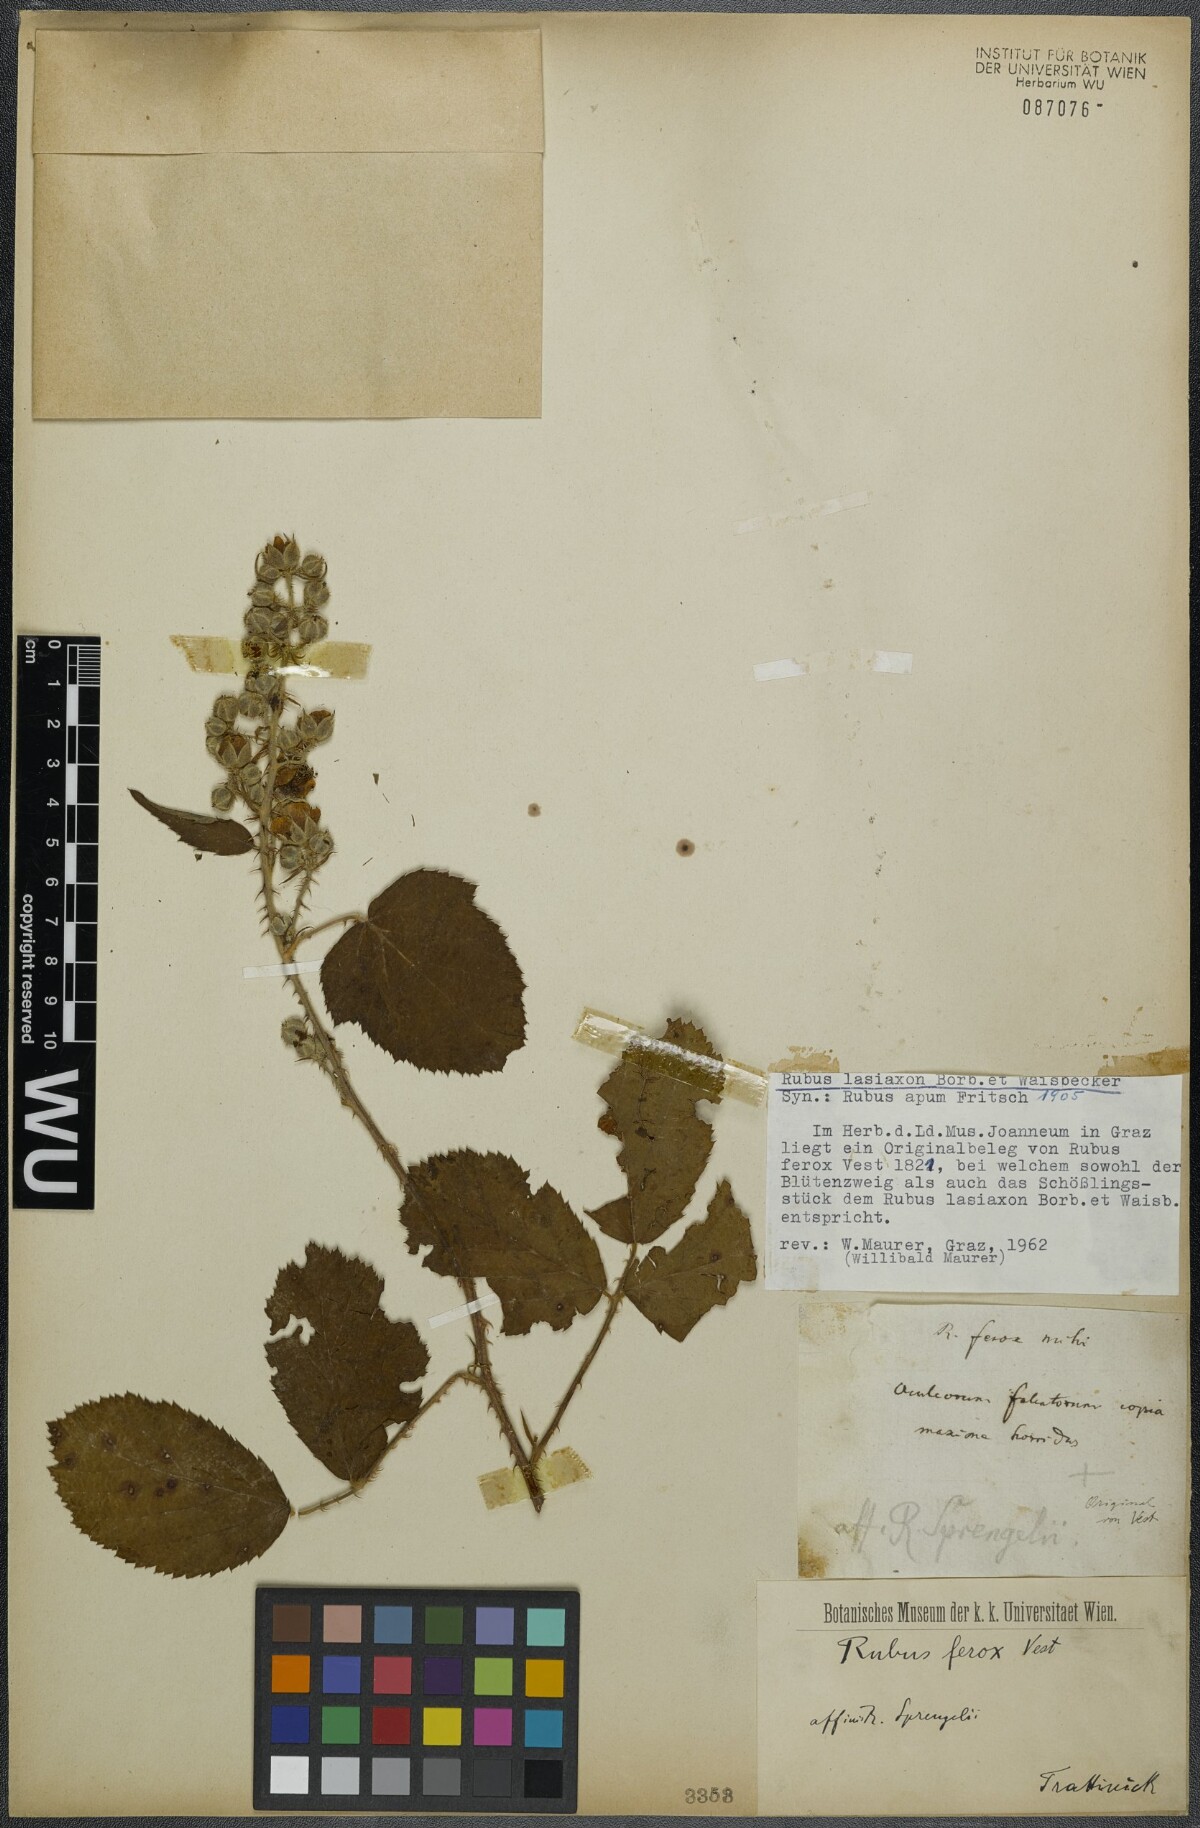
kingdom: Plantae
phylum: Tracheophyta
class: Magnoliopsida
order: Rosales
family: Rosaceae
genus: Rubus
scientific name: Rubus ferox
